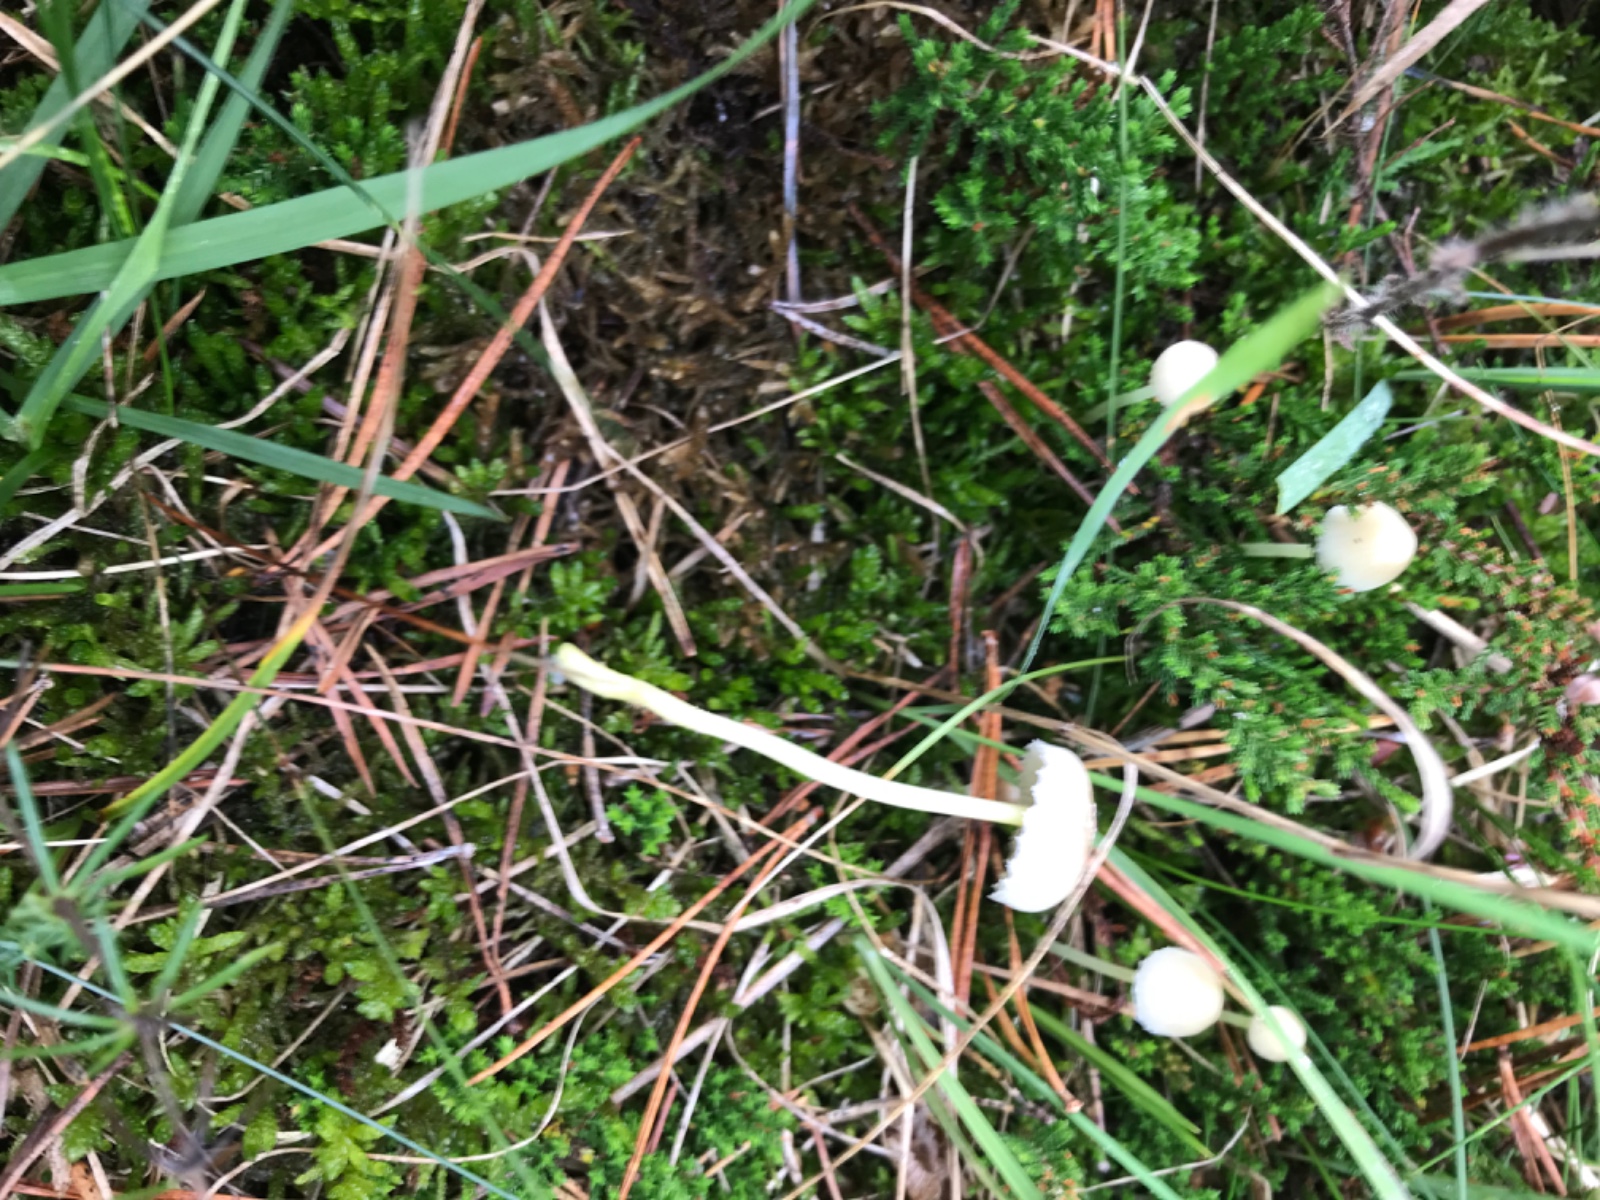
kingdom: Fungi
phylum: Basidiomycota
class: Agaricomycetes
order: Agaricales
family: Mycenaceae
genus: Mycena
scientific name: Mycena epipterygia
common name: gulstokket huesvamp
